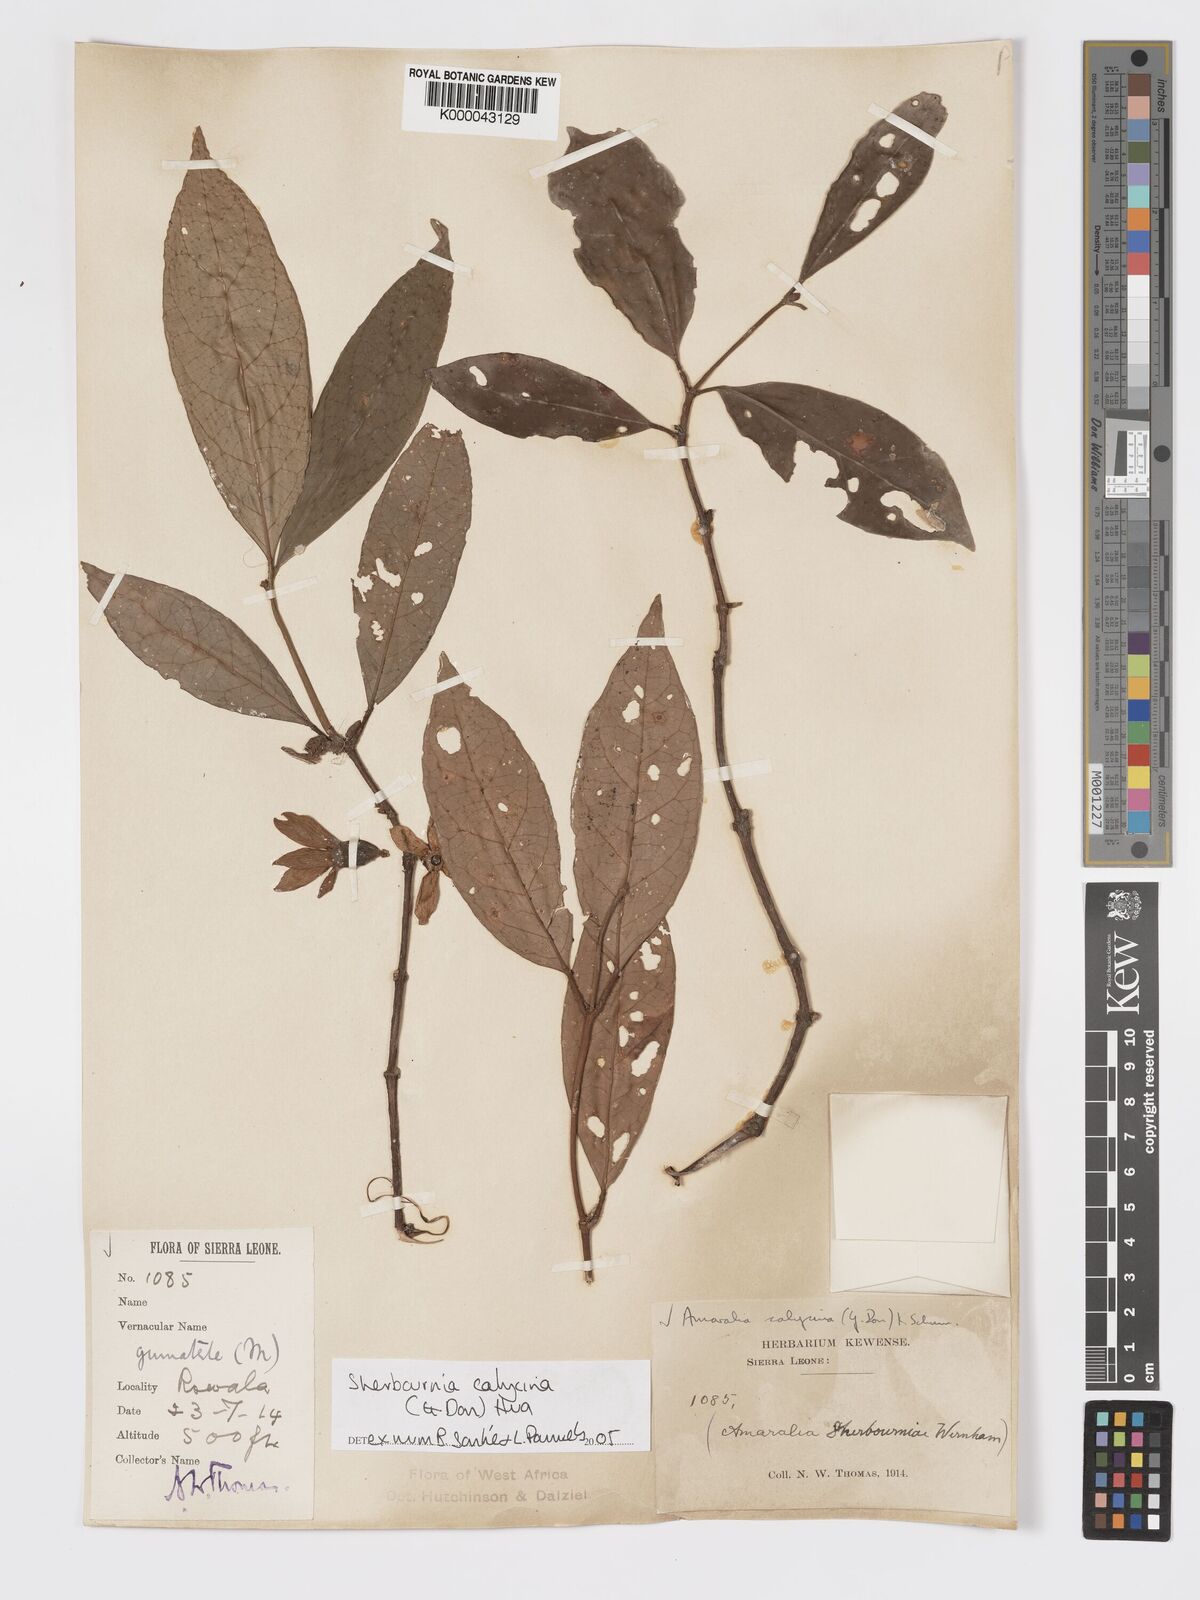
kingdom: Plantae
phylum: Tracheophyta
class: Magnoliopsida
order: Gentianales
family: Rubiaceae
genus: Sherbournia
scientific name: Sherbournia calycina
